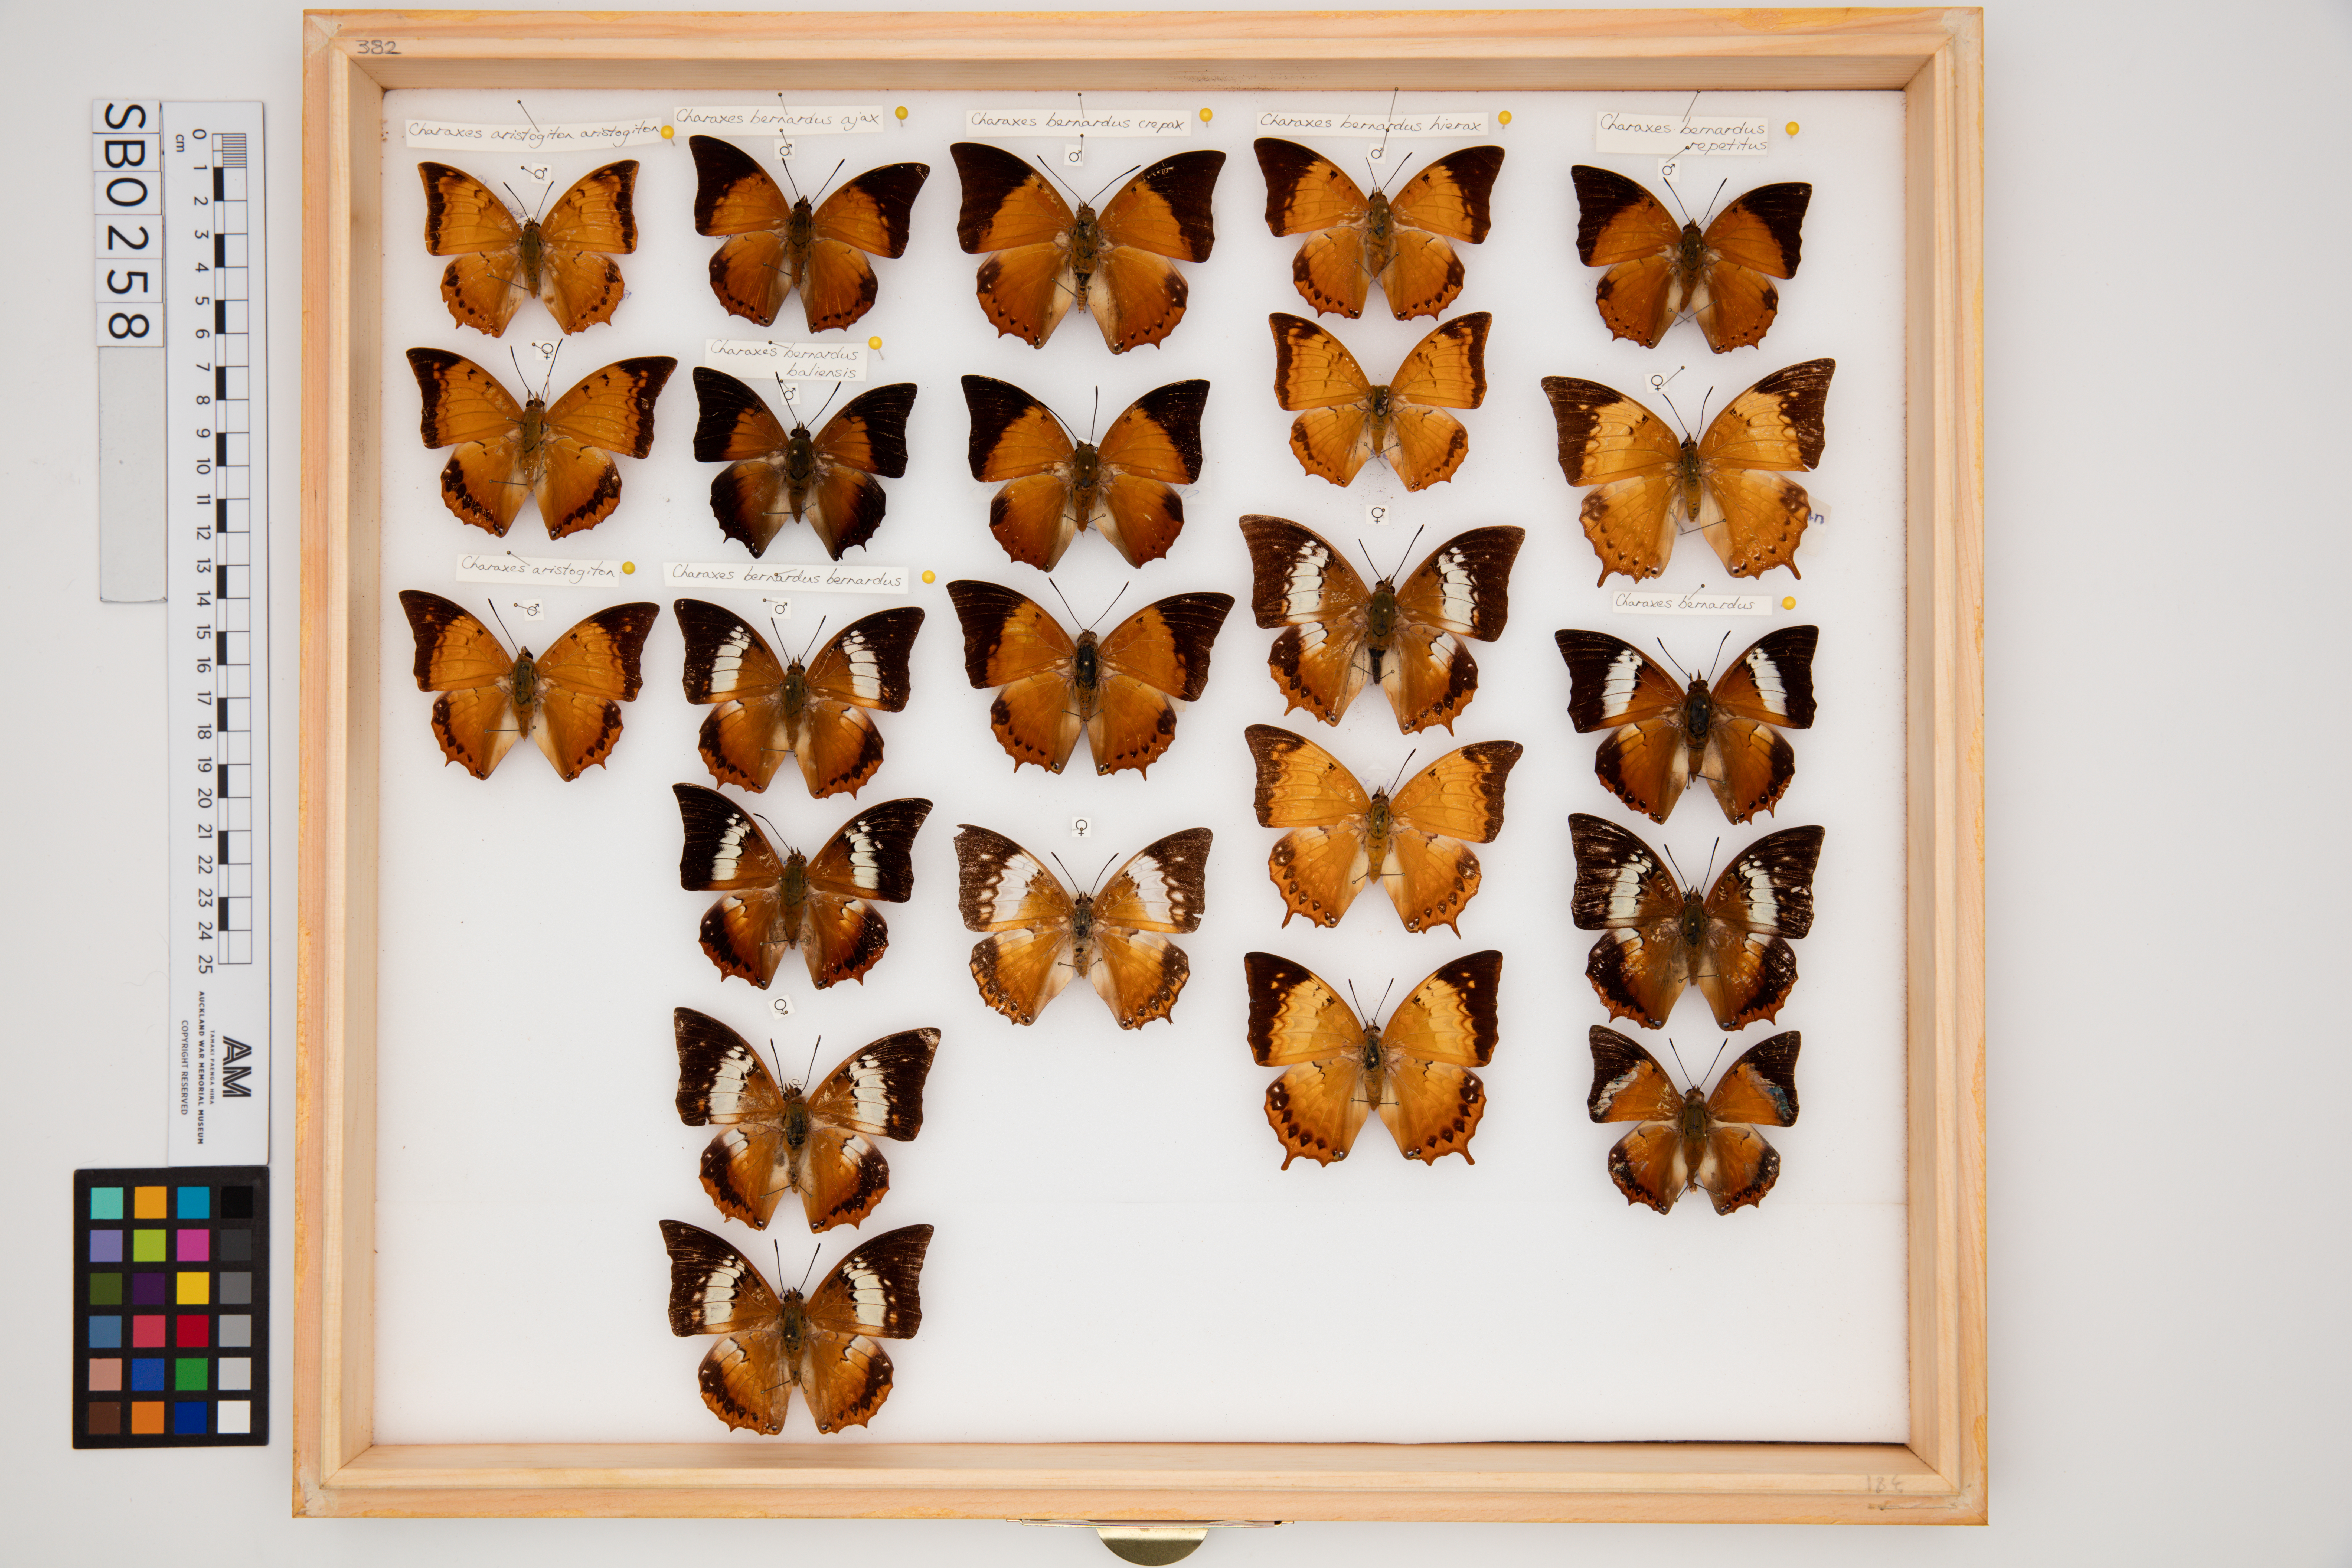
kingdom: Animalia
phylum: Arthropoda
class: Insecta
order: Lepidoptera
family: Nymphalidae
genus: Charaxes
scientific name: Charaxes bernardus
